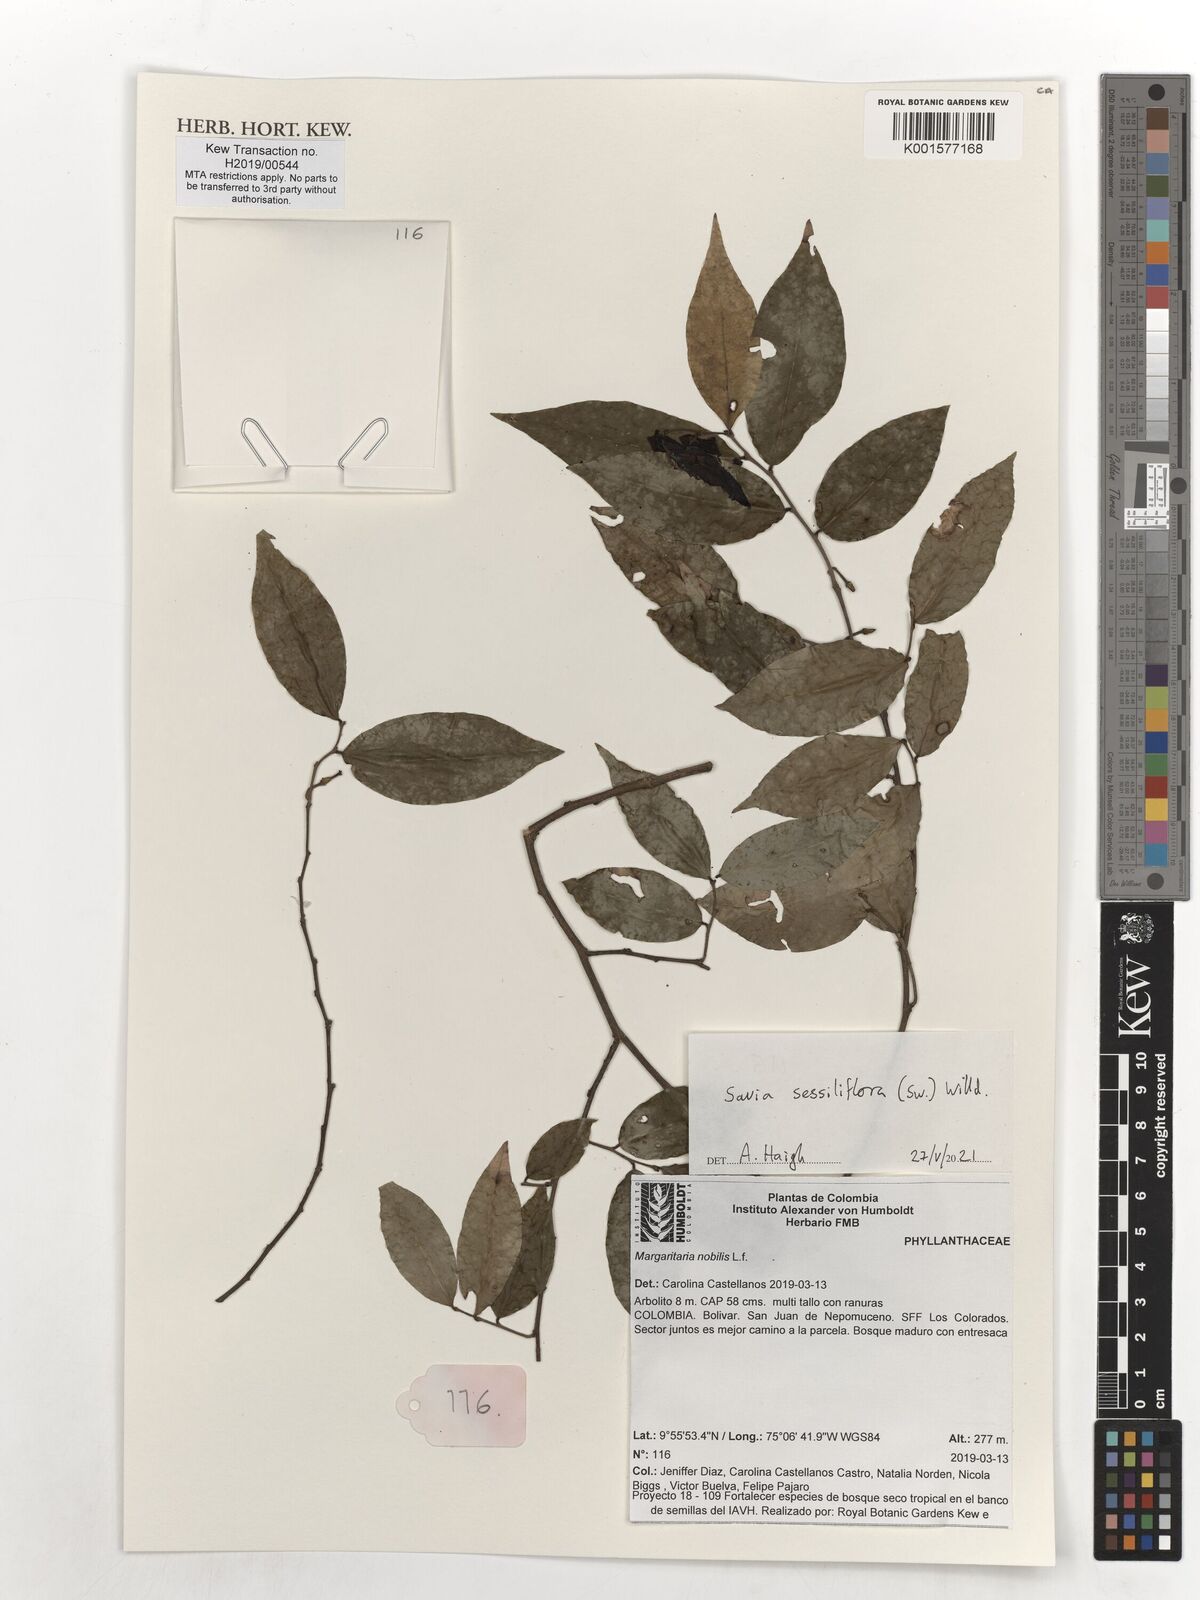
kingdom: Plantae
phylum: Tracheophyta
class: Magnoliopsida
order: Malpighiales
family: Phyllanthaceae
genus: Savia
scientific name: Savia sessiliflora
